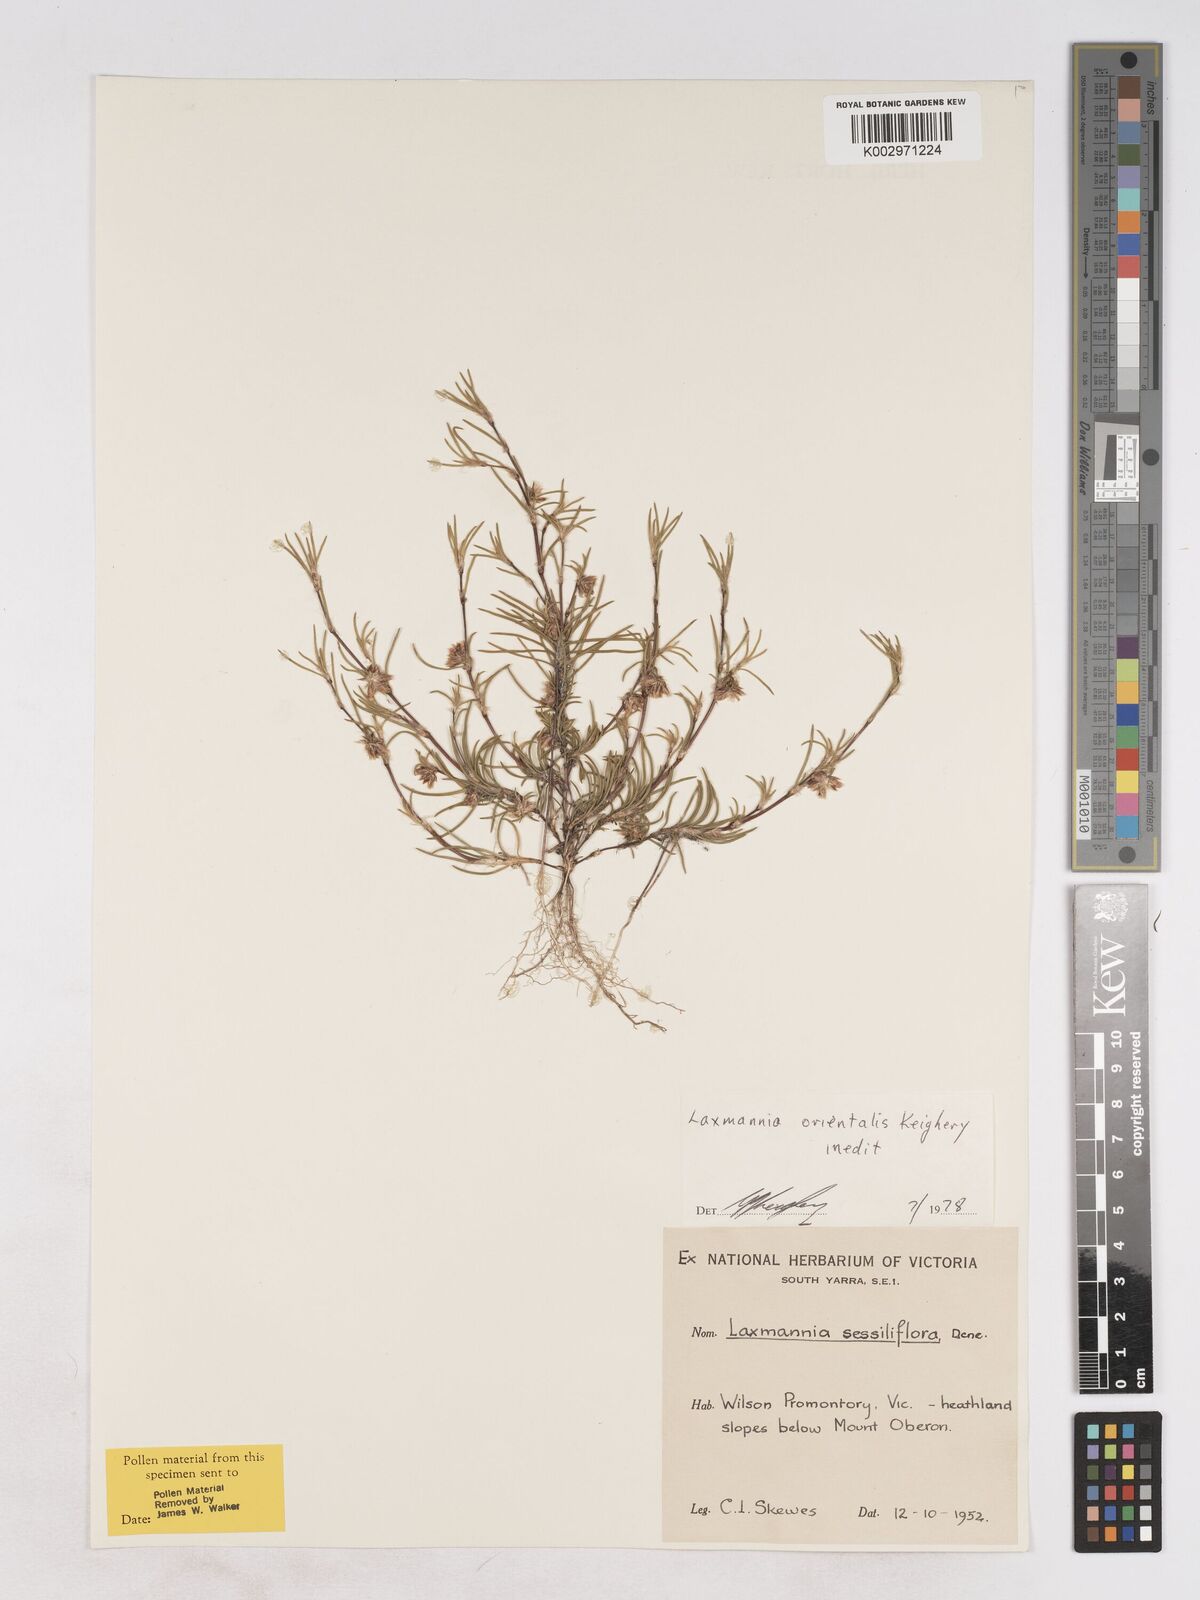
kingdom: Plantae
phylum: Tracheophyta
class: Liliopsida
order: Asparagales
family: Asparagaceae
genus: Laxmannia
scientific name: Laxmannia orientalis
